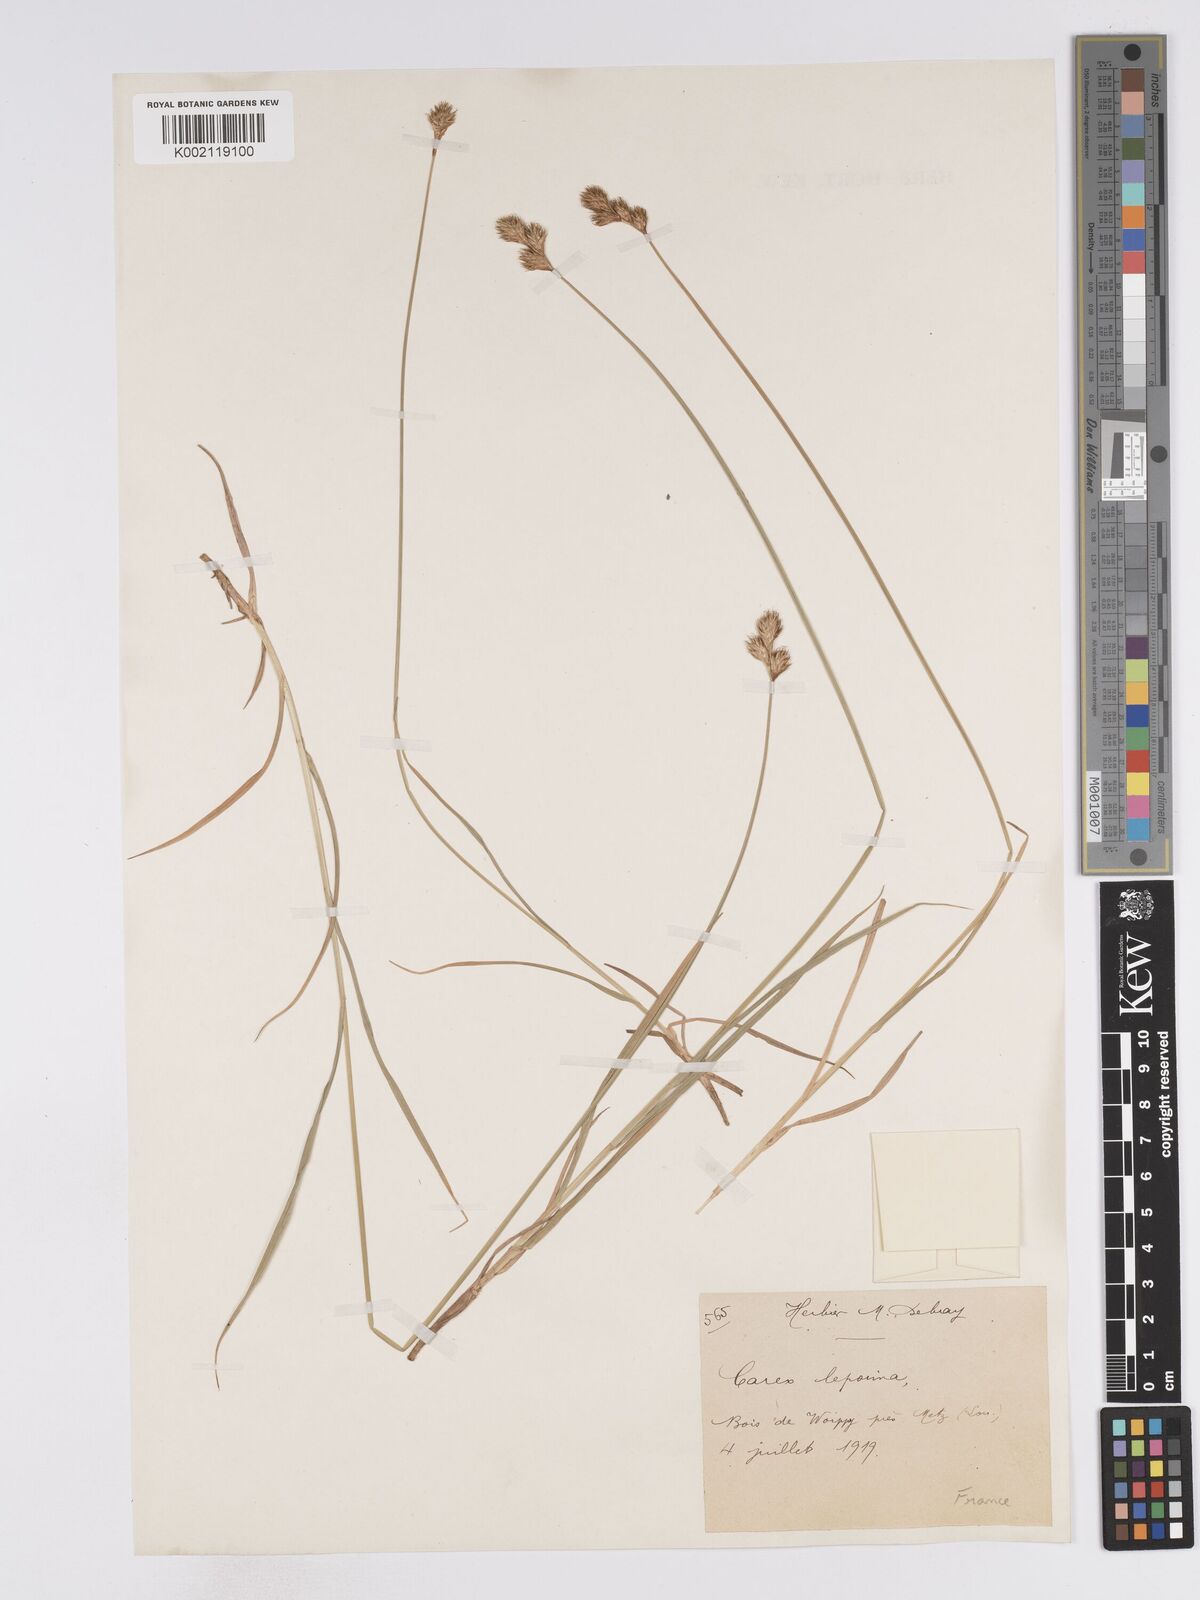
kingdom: Plantae
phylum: Tracheophyta
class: Liliopsida
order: Poales
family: Cyperaceae
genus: Carex
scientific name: Carex leporina
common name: Oval sedge
